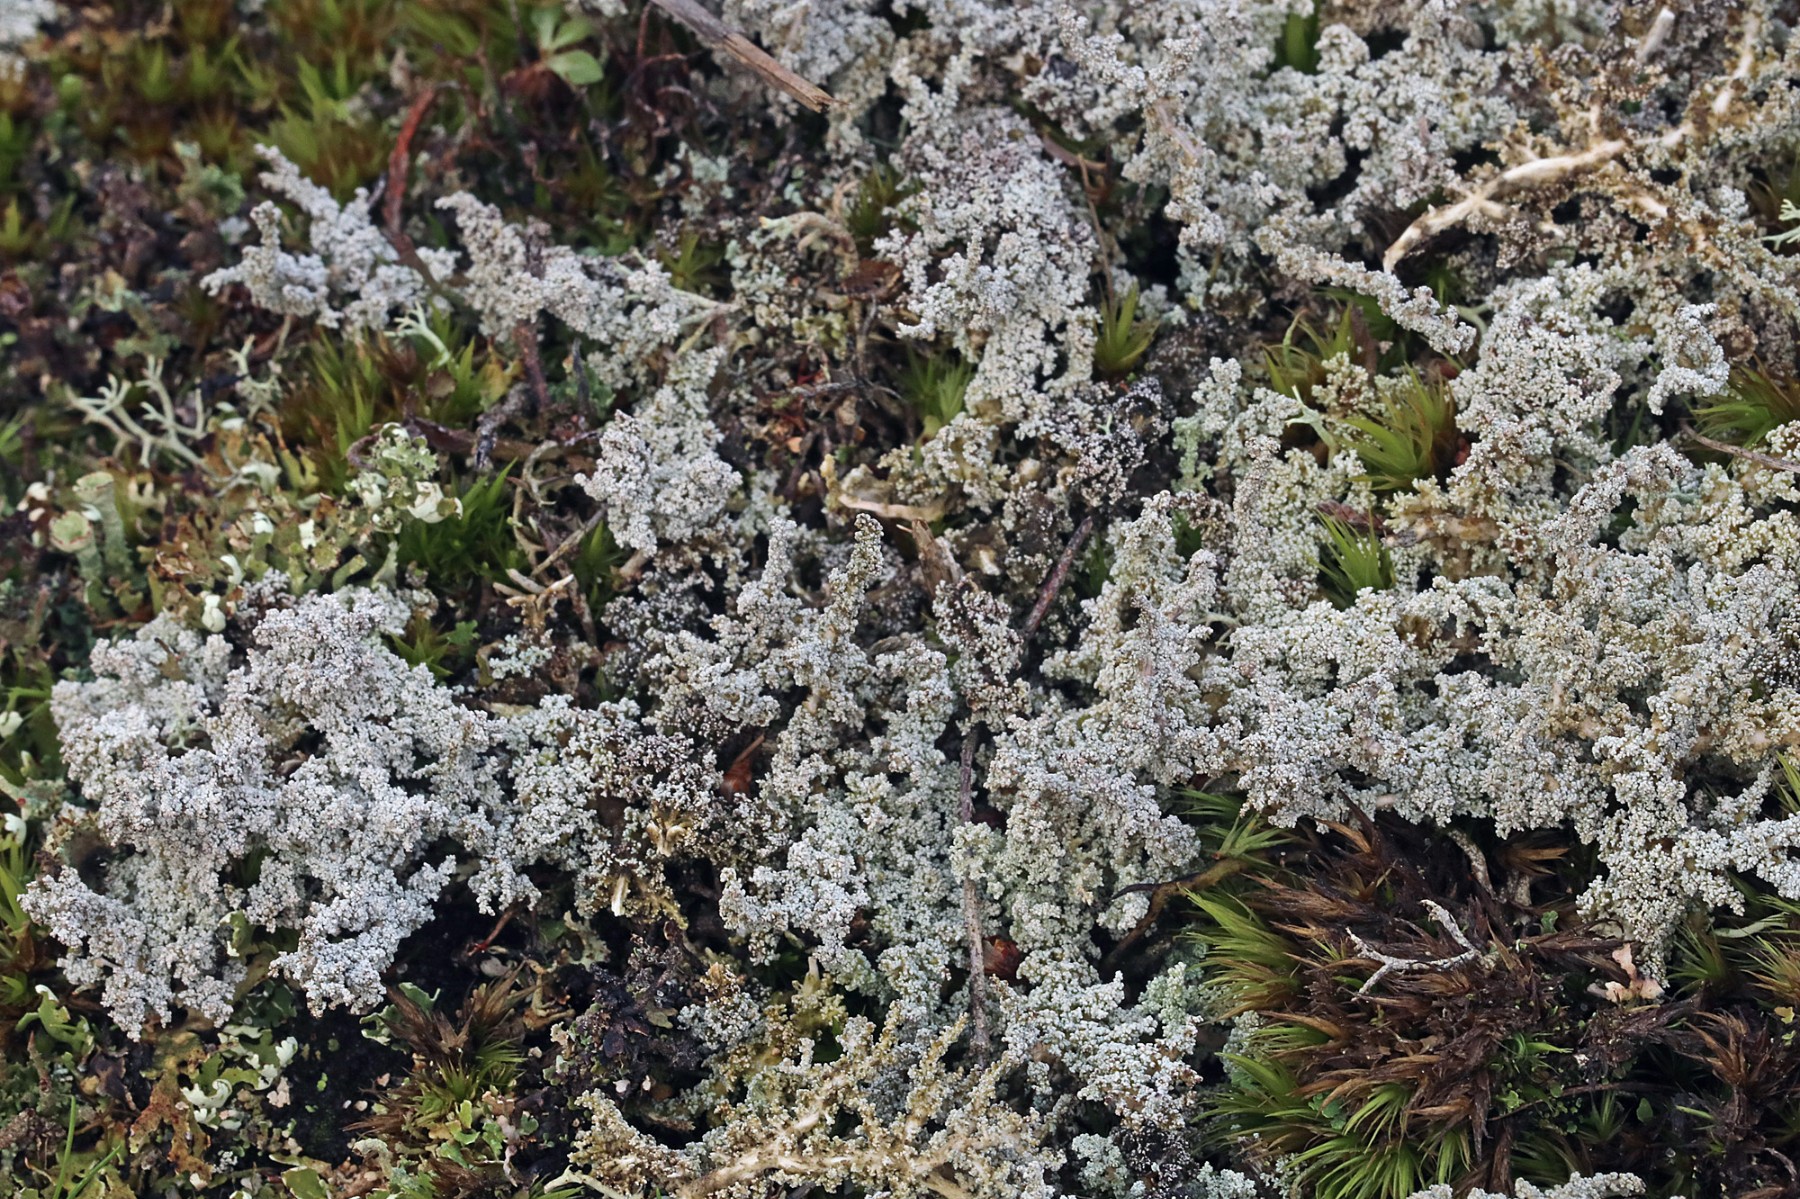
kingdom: Fungi
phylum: Ascomycota
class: Lecanoromycetes
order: Lecanorales
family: Stereocaulaceae
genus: Stereocaulon
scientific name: Stereocaulon saxatile
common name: klit-korallav
